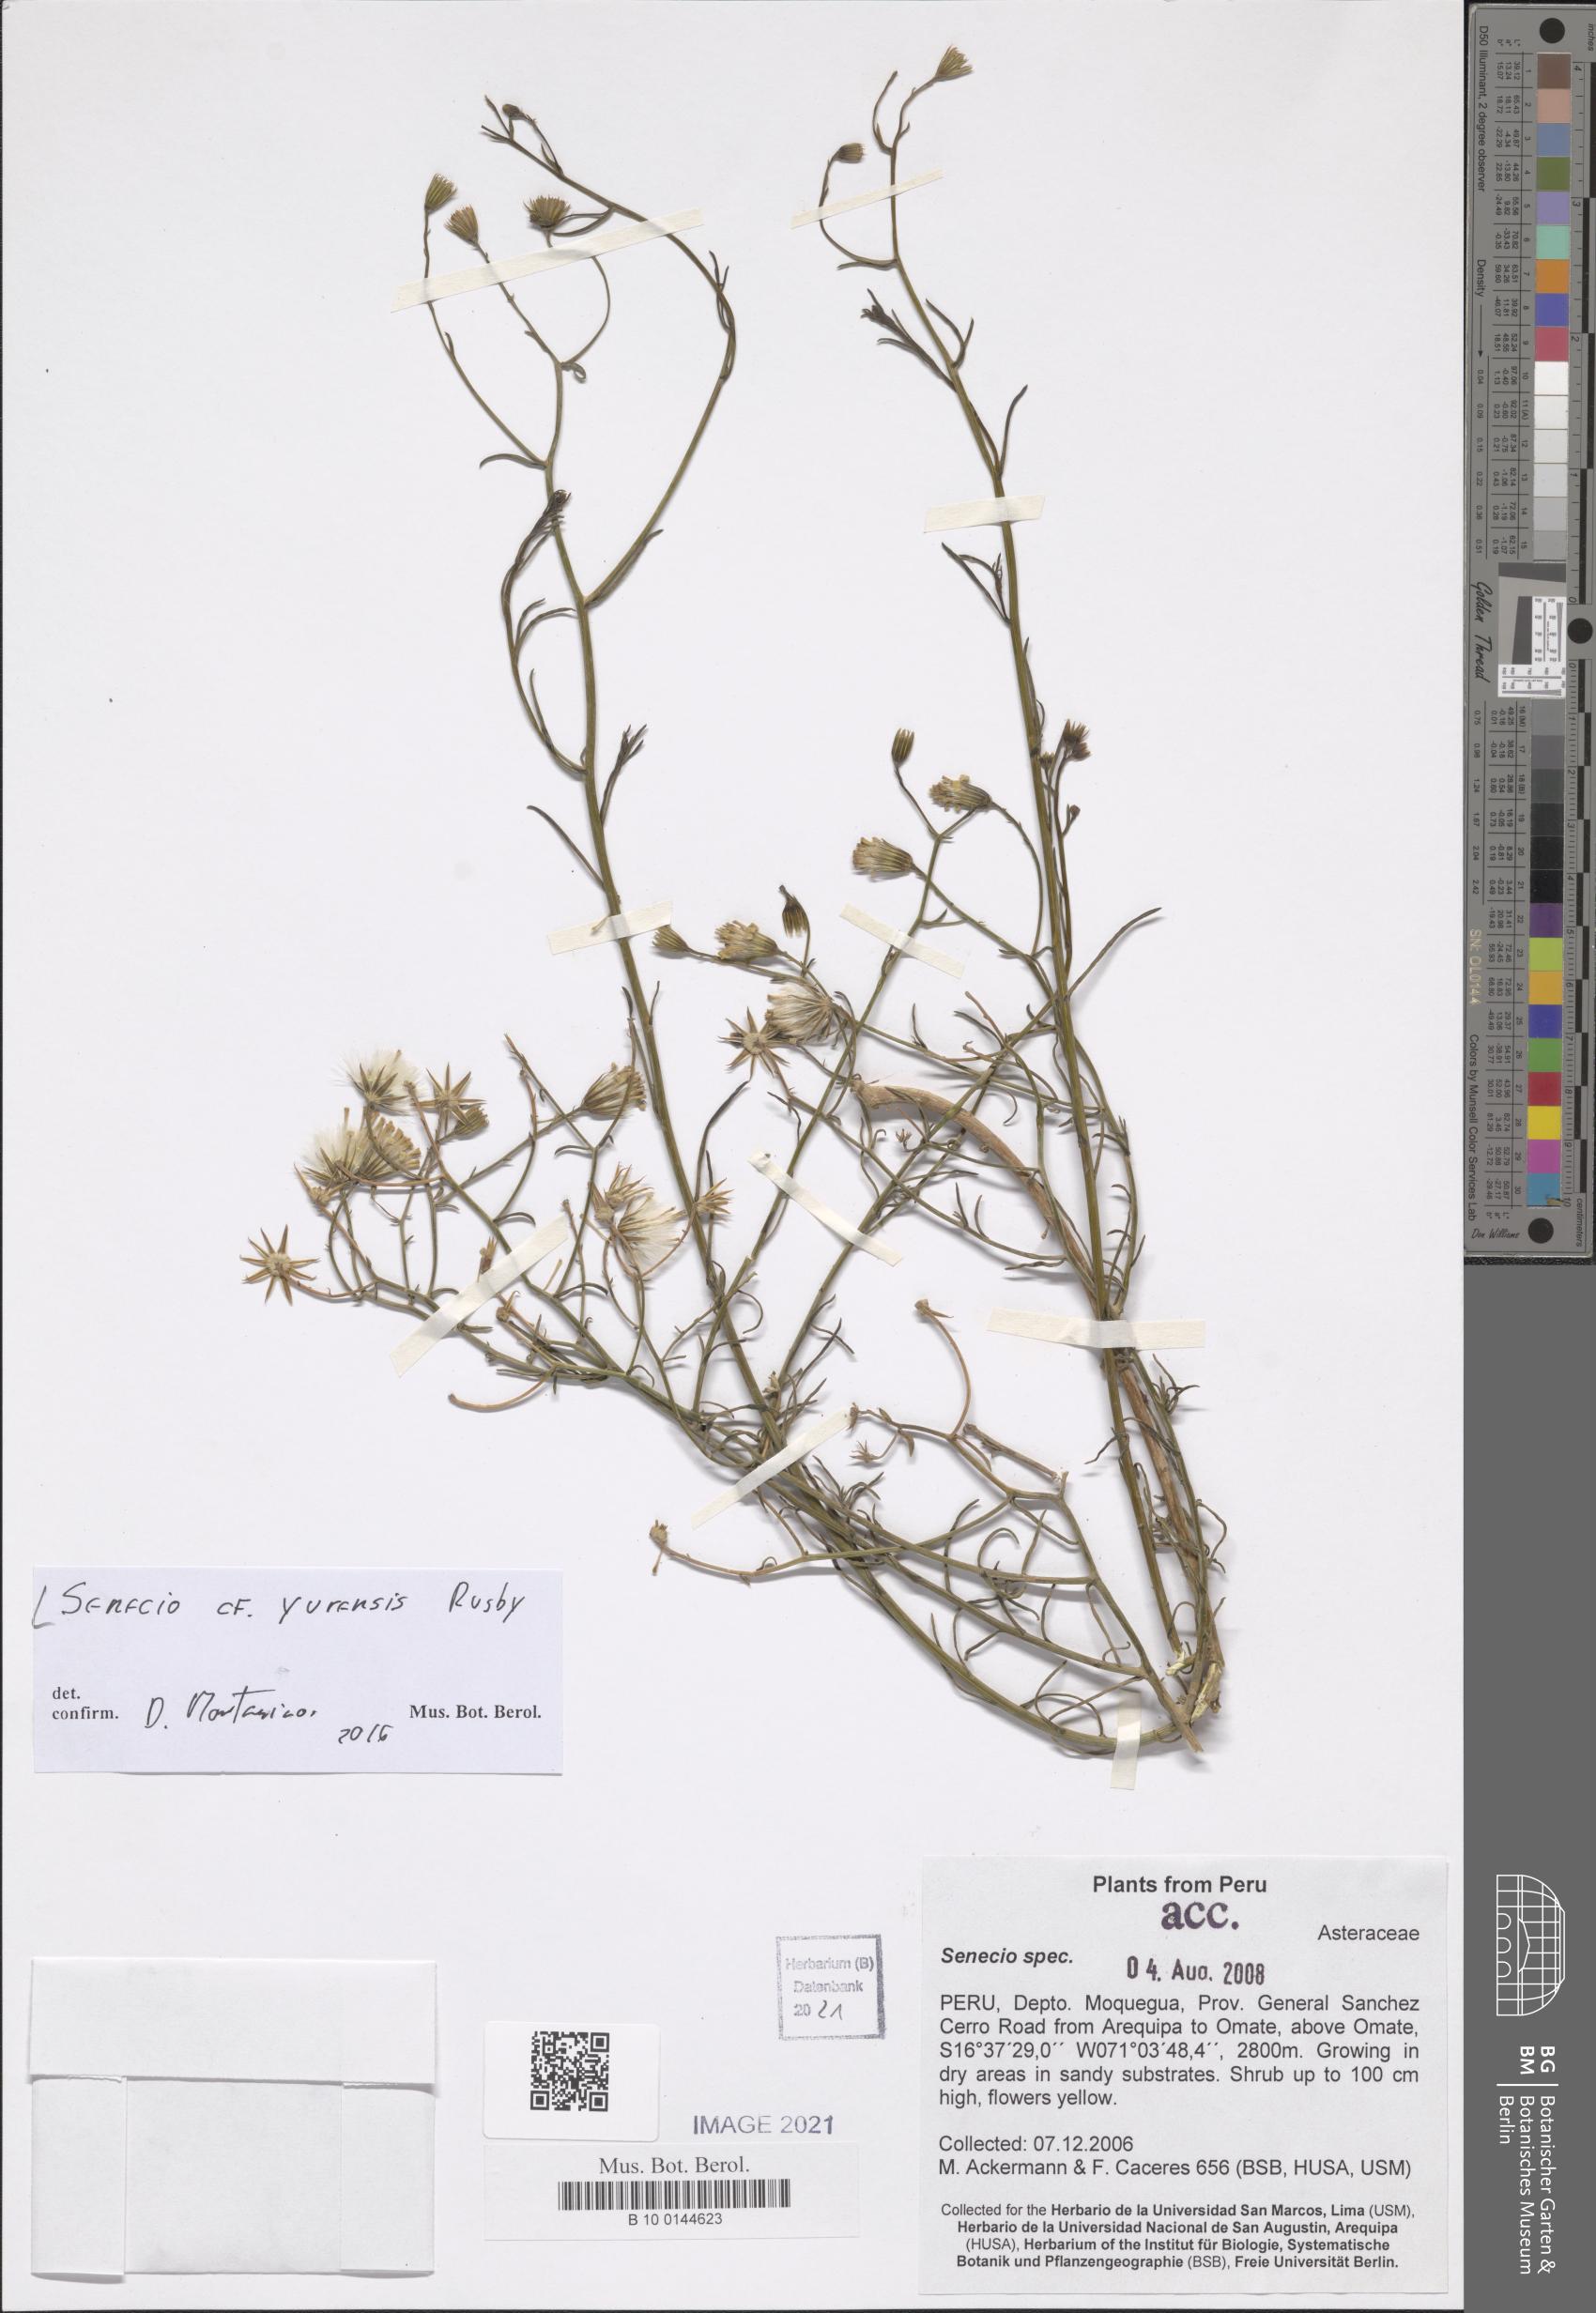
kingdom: Plantae
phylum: Tracheophyta
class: Magnoliopsida
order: Asterales
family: Asteraceae
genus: Senecio
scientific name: Senecio yurensis
